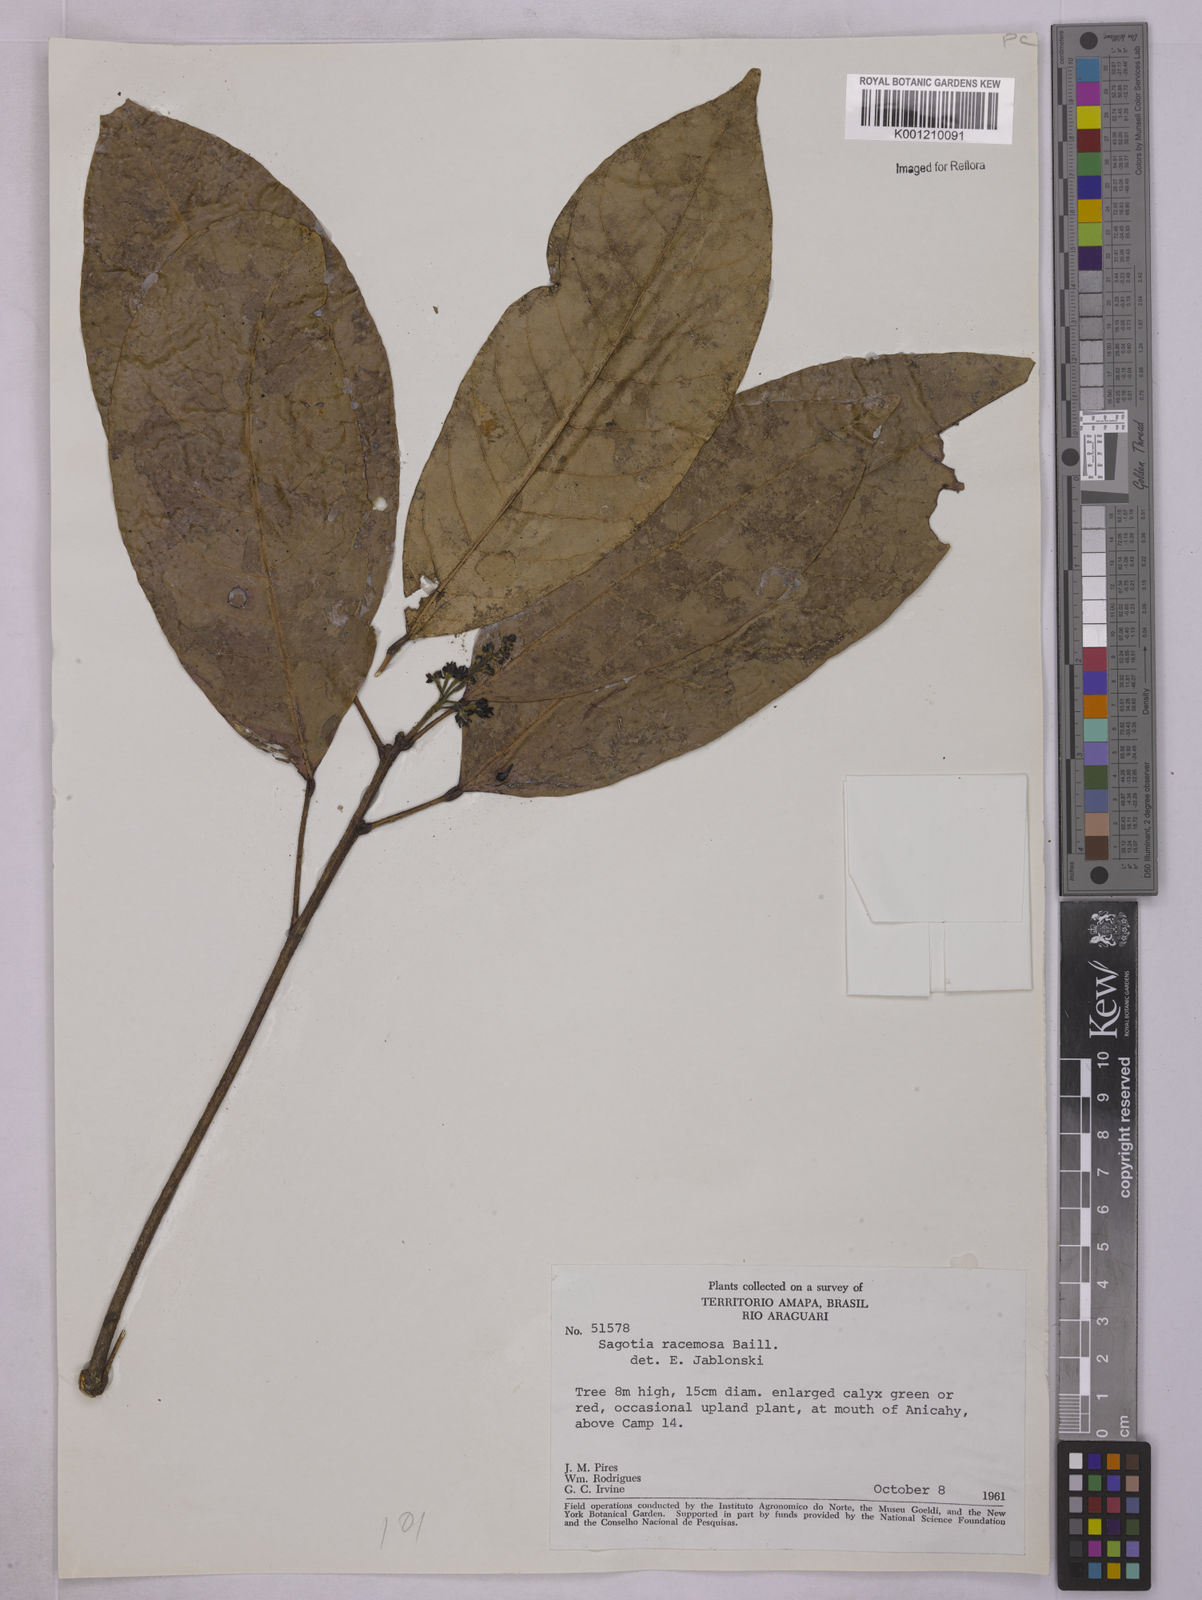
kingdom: Plantae
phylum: Tracheophyta
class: Magnoliopsida
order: Malpighiales
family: Euphorbiaceae
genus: Sagotia
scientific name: Sagotia racemosa
